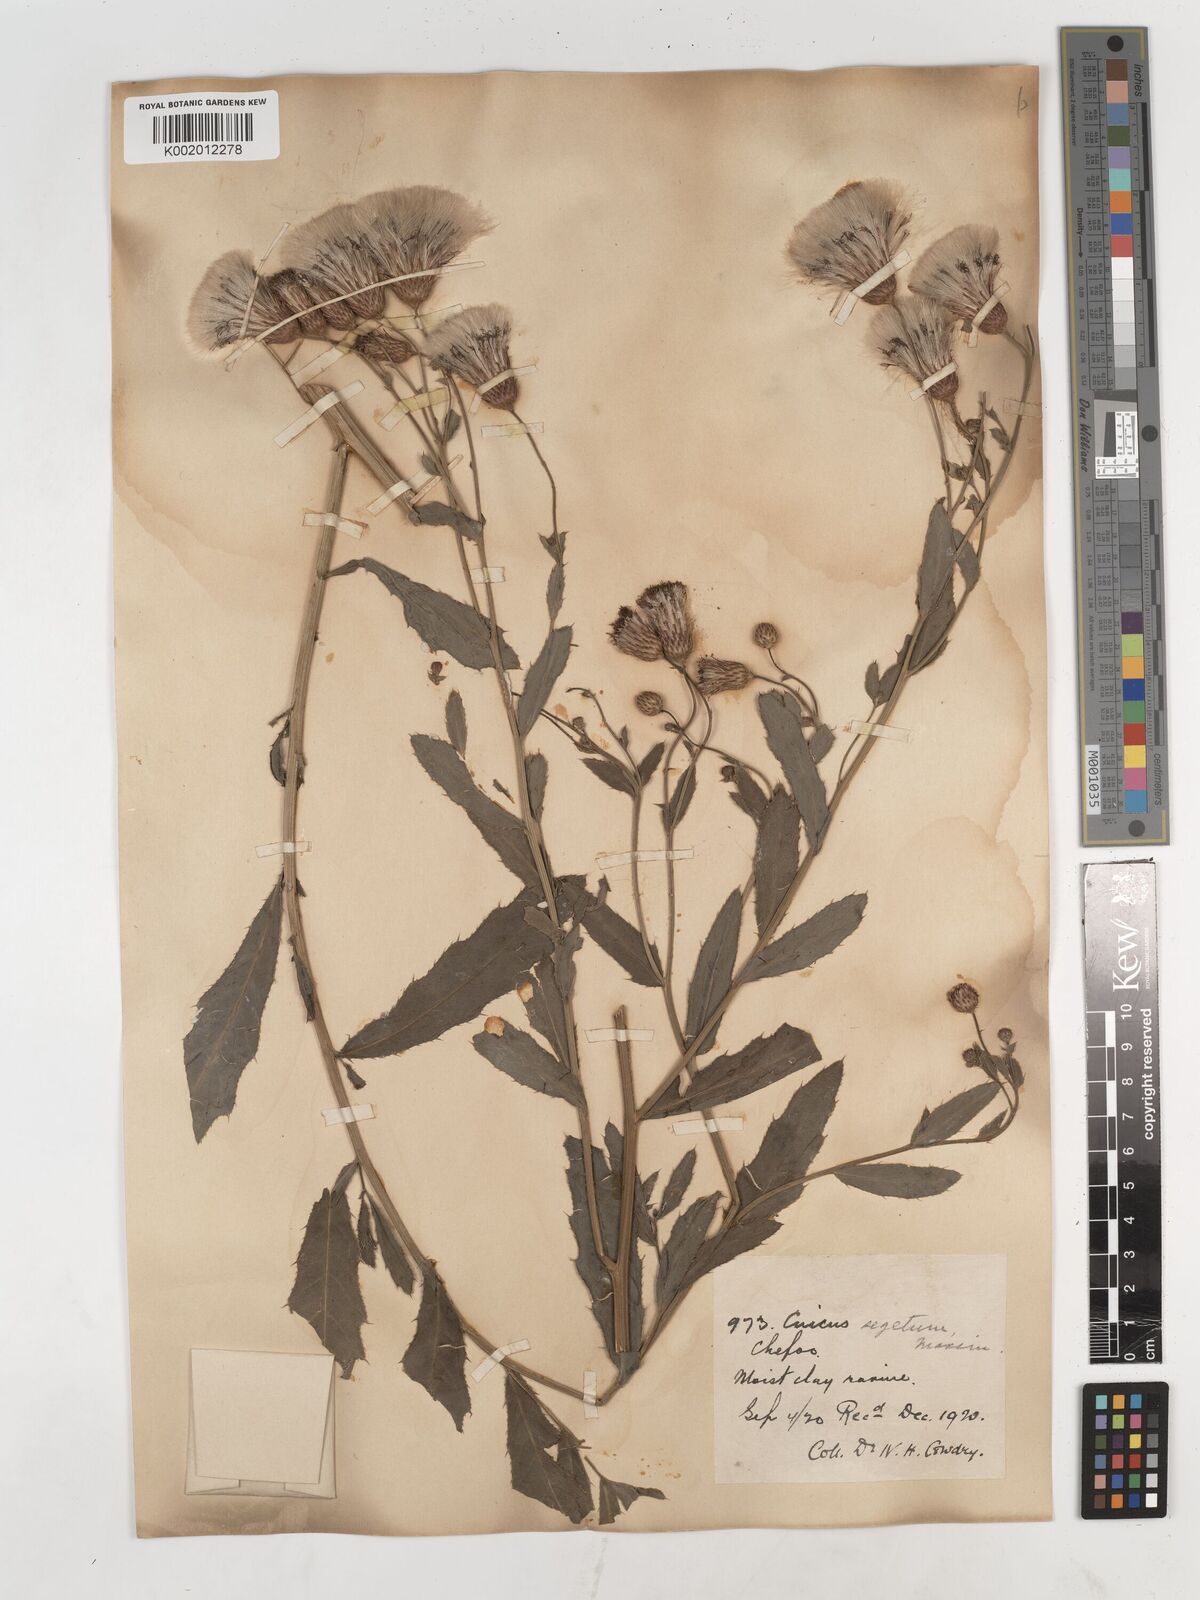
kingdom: Plantae
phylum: Tracheophyta
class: Magnoliopsida
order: Asterales
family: Asteraceae
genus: Cirsium
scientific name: Cirsium arvense
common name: Creeping thistle
